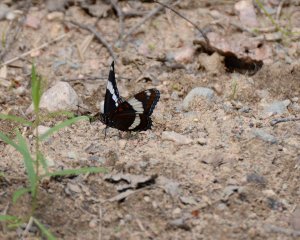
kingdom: Animalia
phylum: Arthropoda
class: Insecta
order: Lepidoptera
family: Nymphalidae
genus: Limenitis
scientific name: Limenitis arthemis
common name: Red-spotted Admiral
